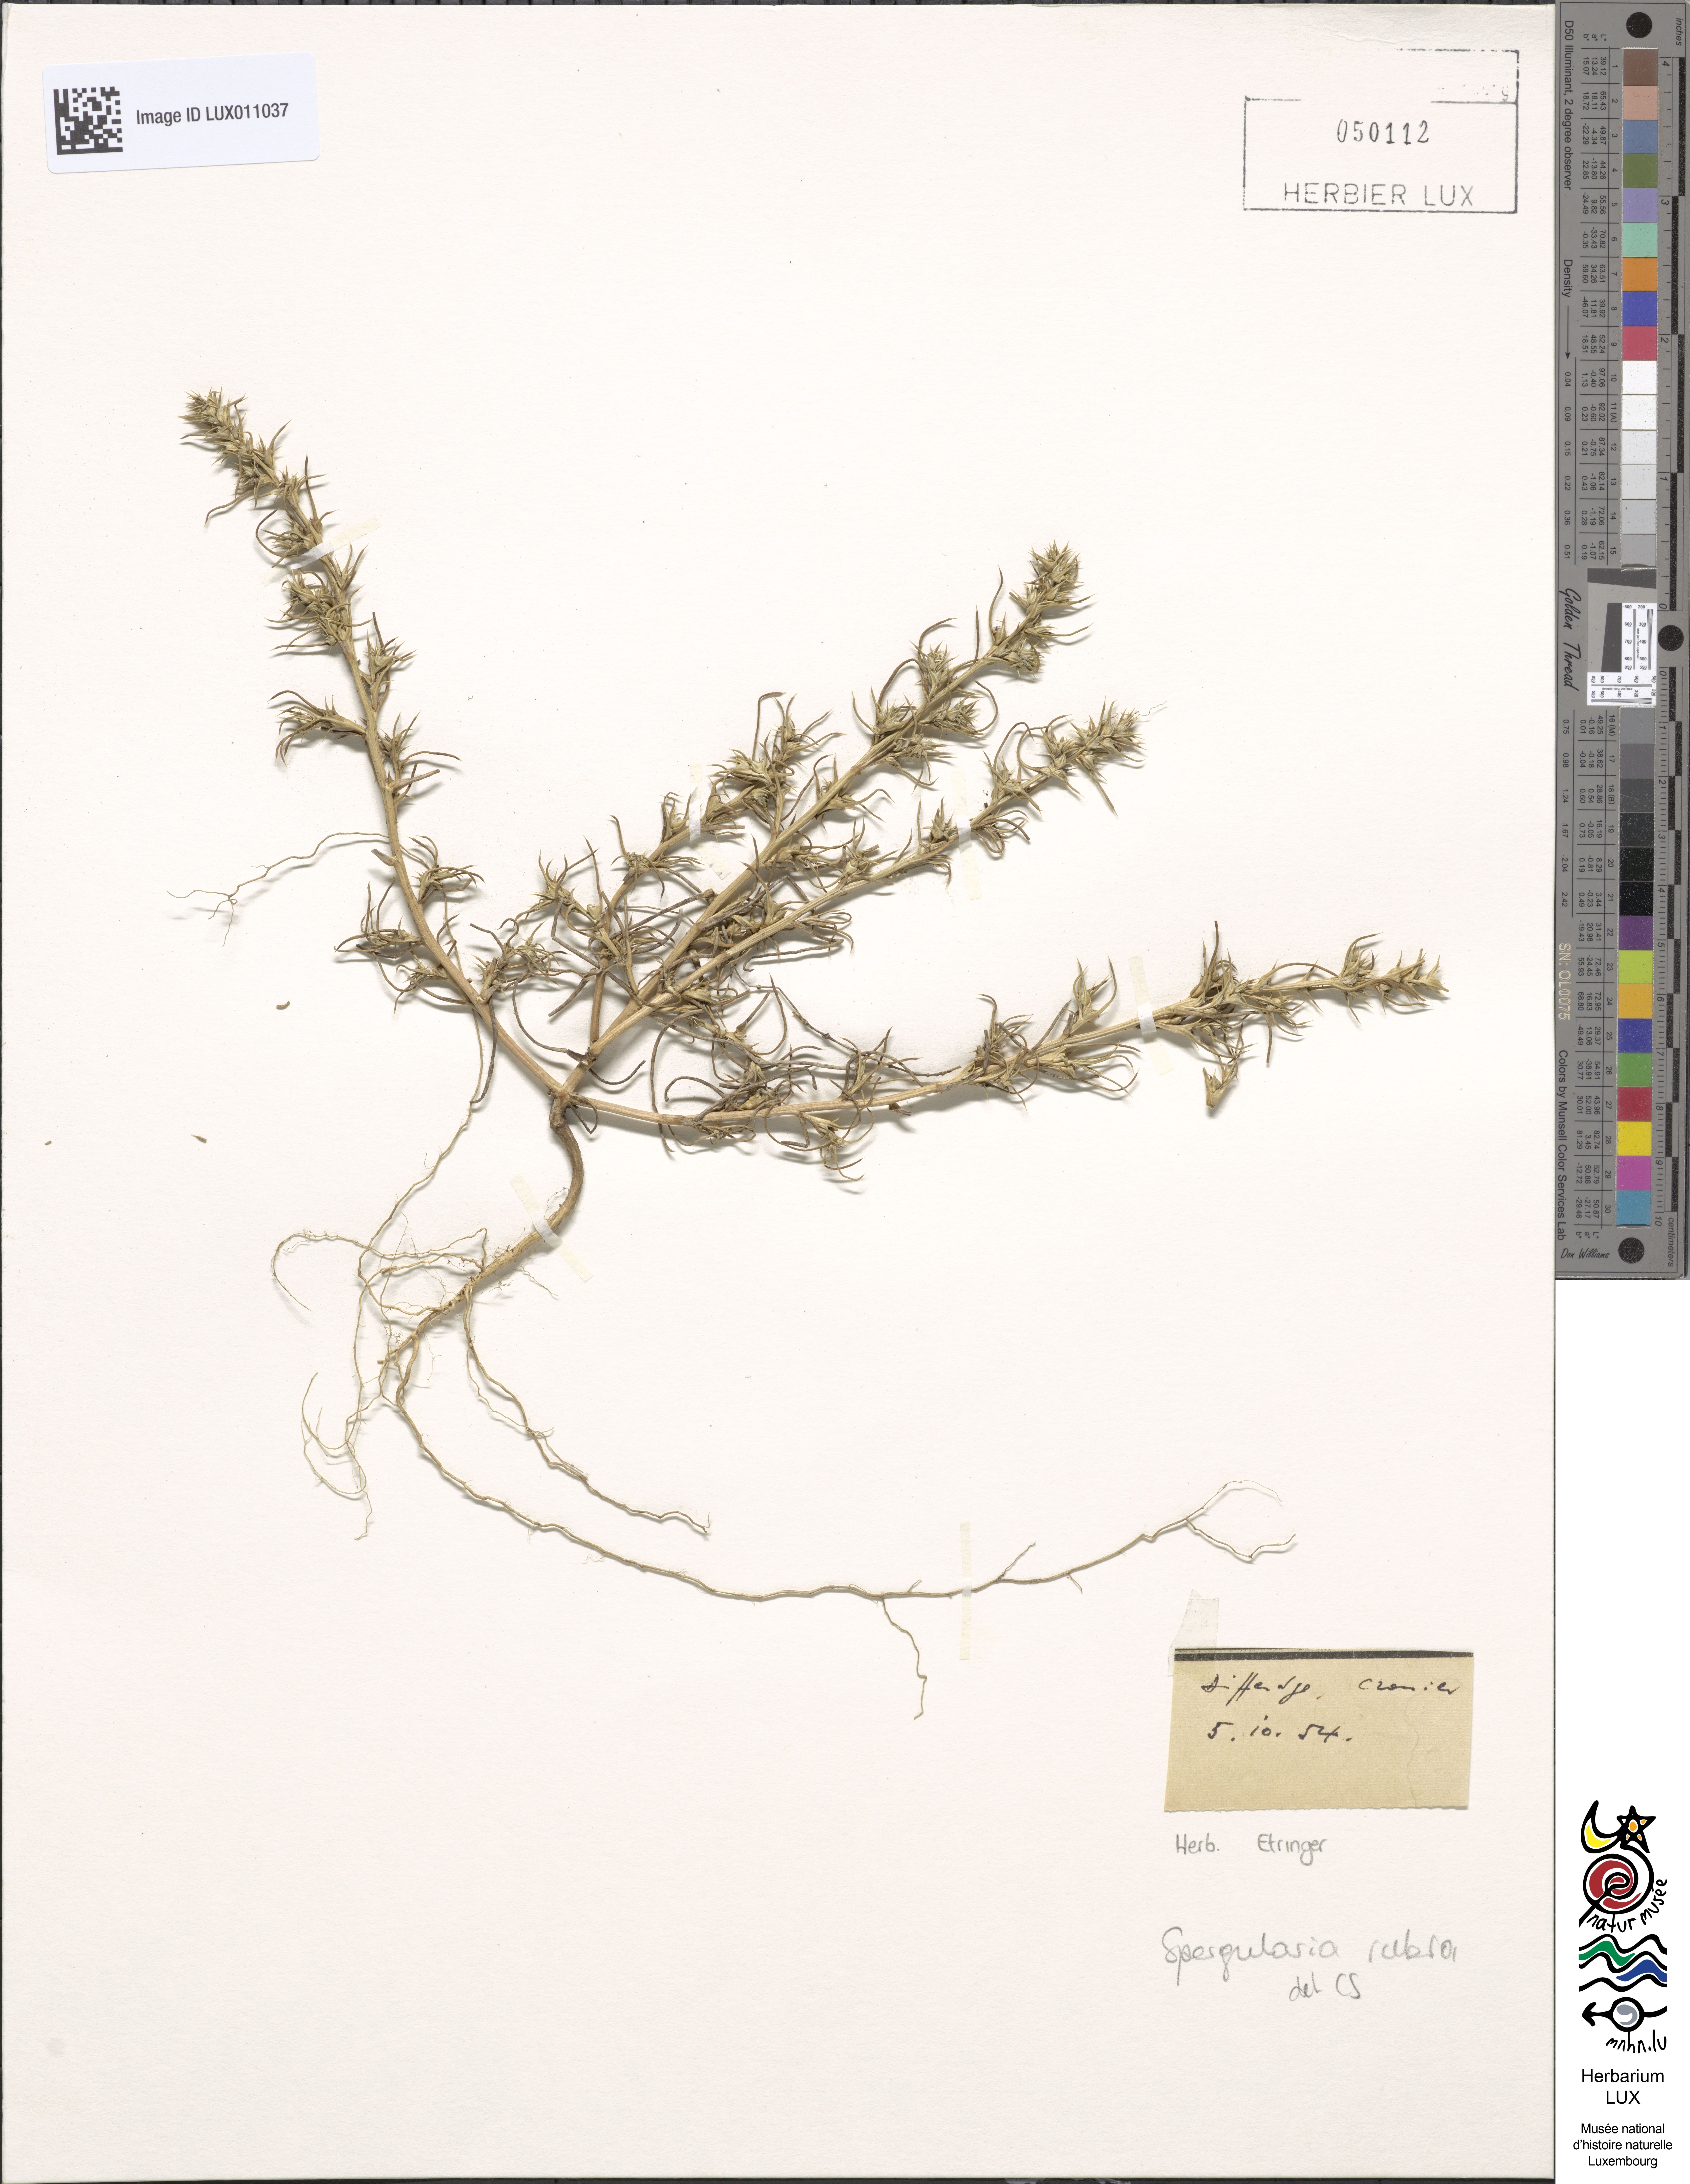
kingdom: Plantae
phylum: Tracheophyta
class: Magnoliopsida
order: Caryophyllales
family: Caryophyllaceae
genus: Spergularia
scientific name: Spergularia rubra
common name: Red sand-spurrey
